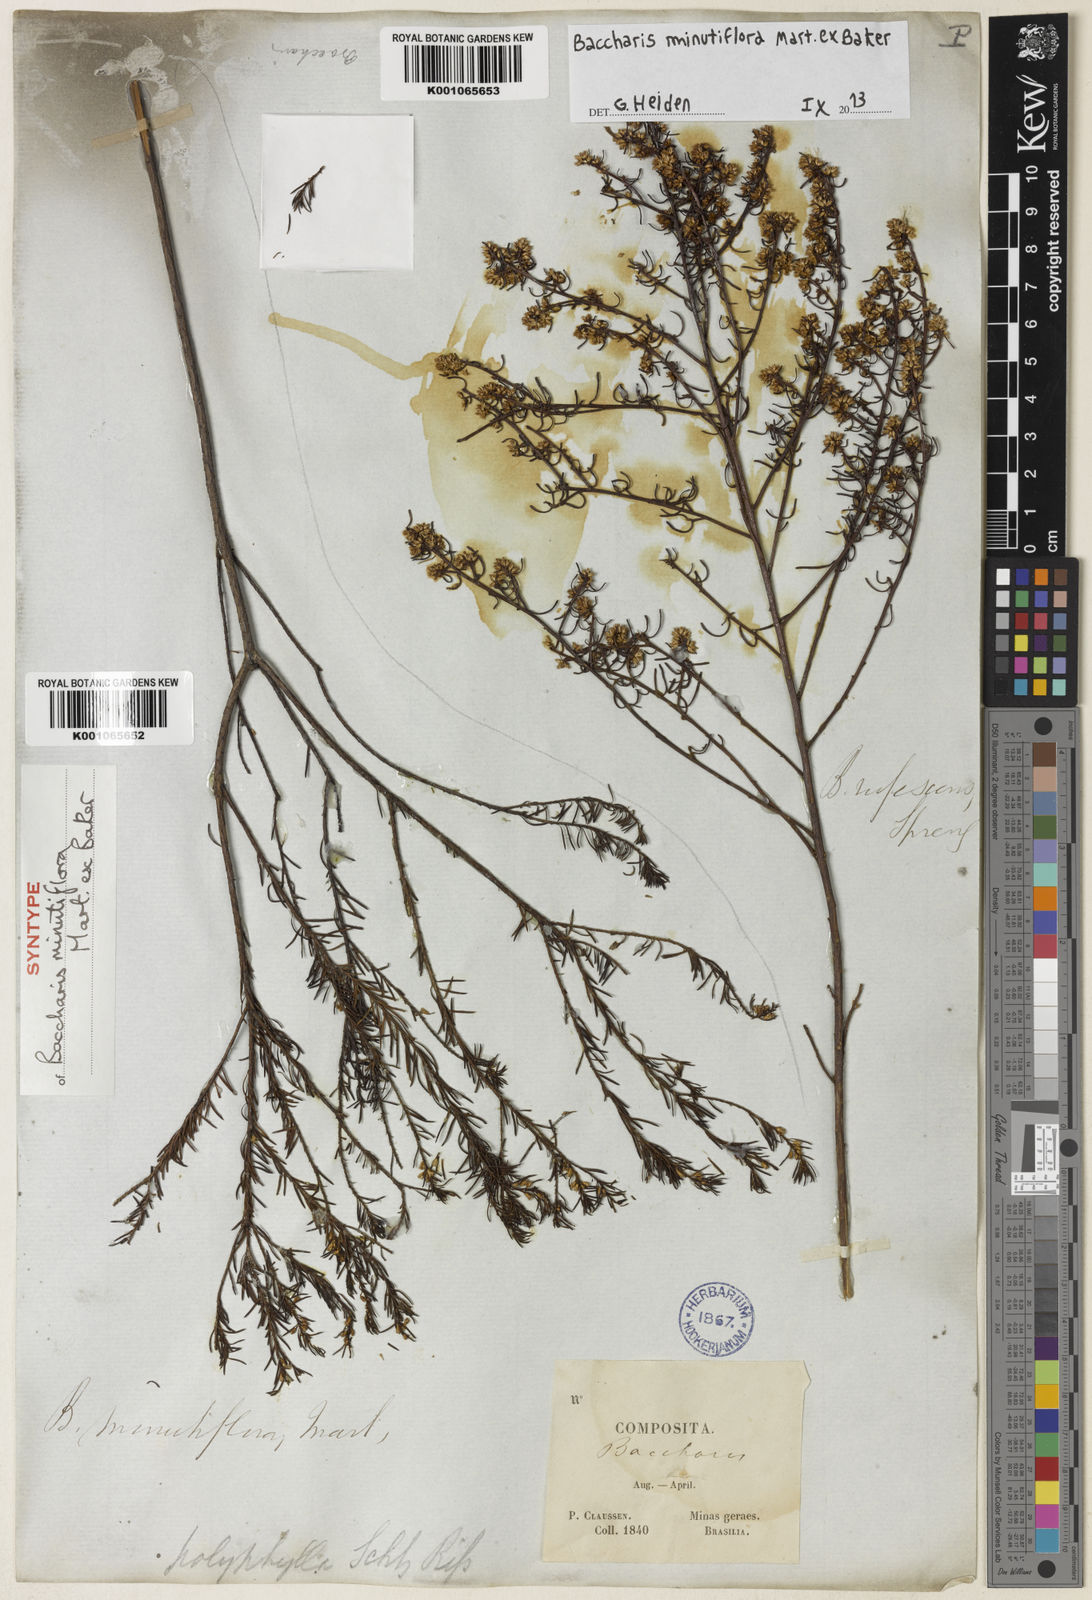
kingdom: Plantae
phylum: Tracheophyta
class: Magnoliopsida
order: Asterales
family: Asteraceae
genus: Baccharis
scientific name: Baccharis minutiflora
